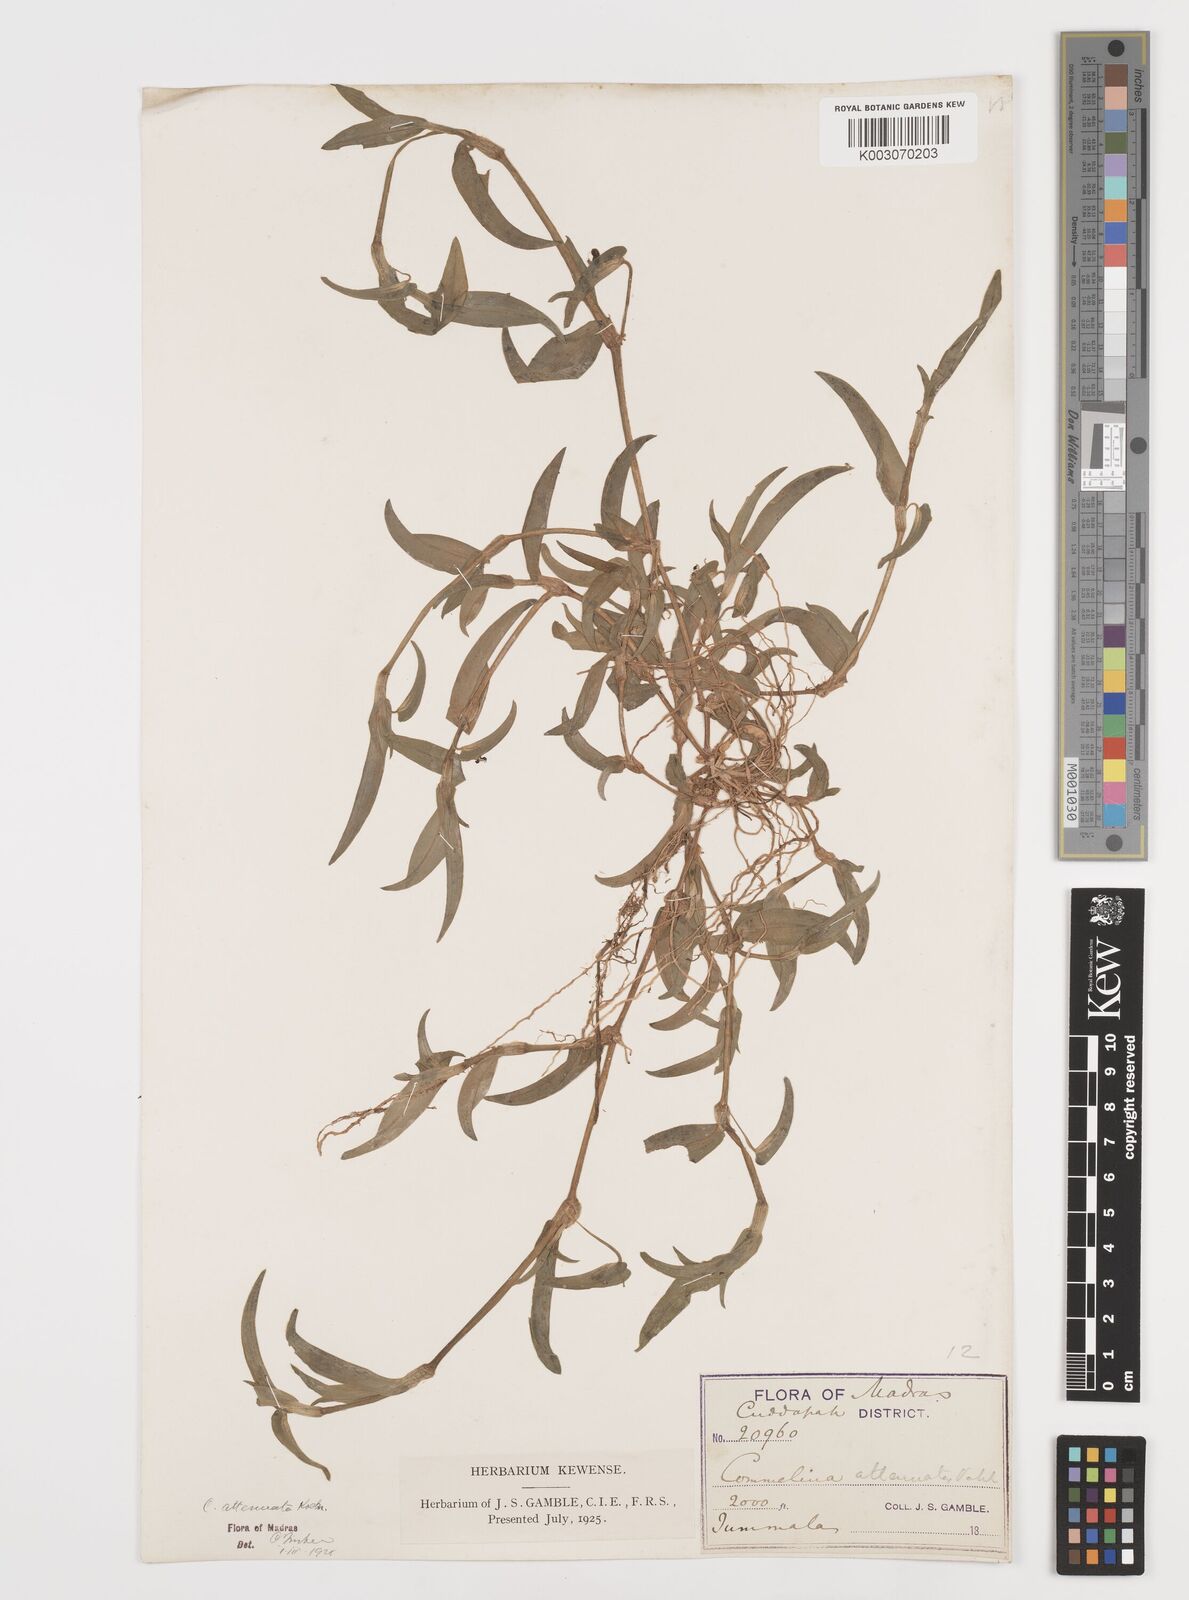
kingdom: Plantae
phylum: Tracheophyta
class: Liliopsida
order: Commelinales
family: Commelinaceae
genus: Commelina
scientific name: Commelina attenuata
